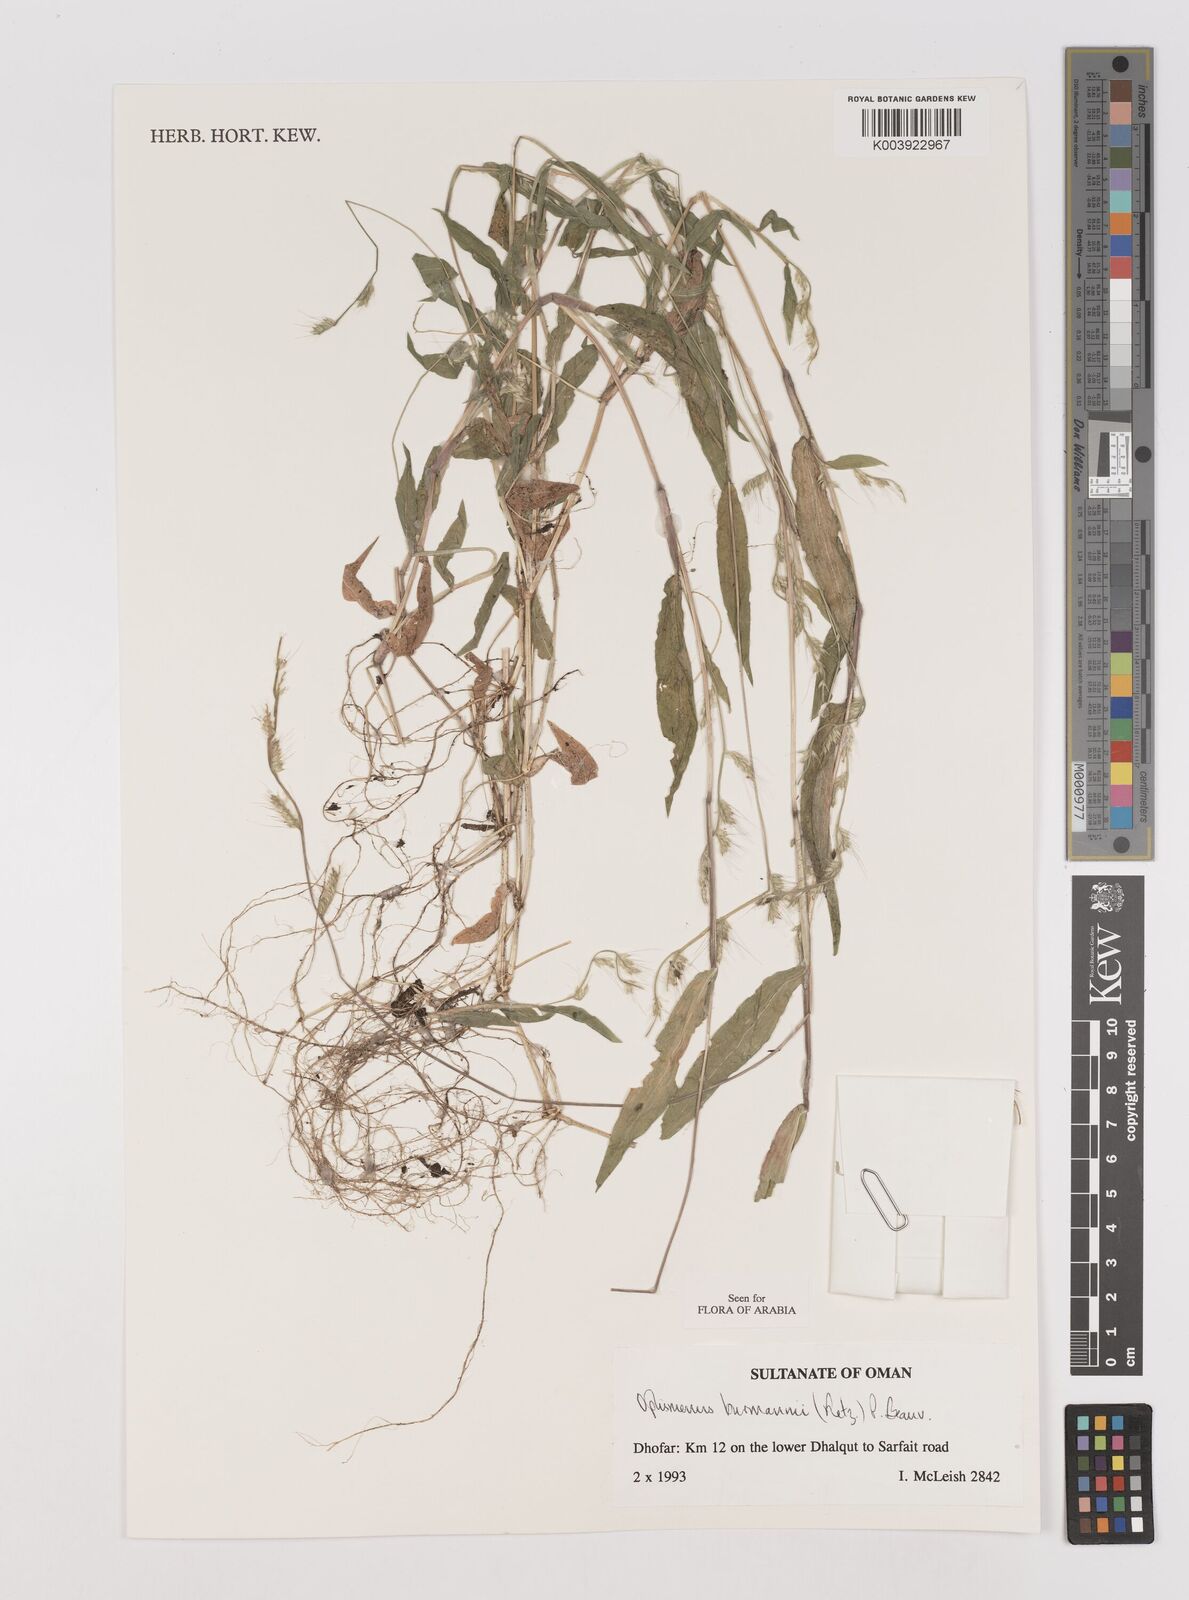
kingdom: Plantae
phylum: Tracheophyta
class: Liliopsida
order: Poales
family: Poaceae
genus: Oplismenus
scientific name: Oplismenus burmanni
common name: Burmann's basketgrass
